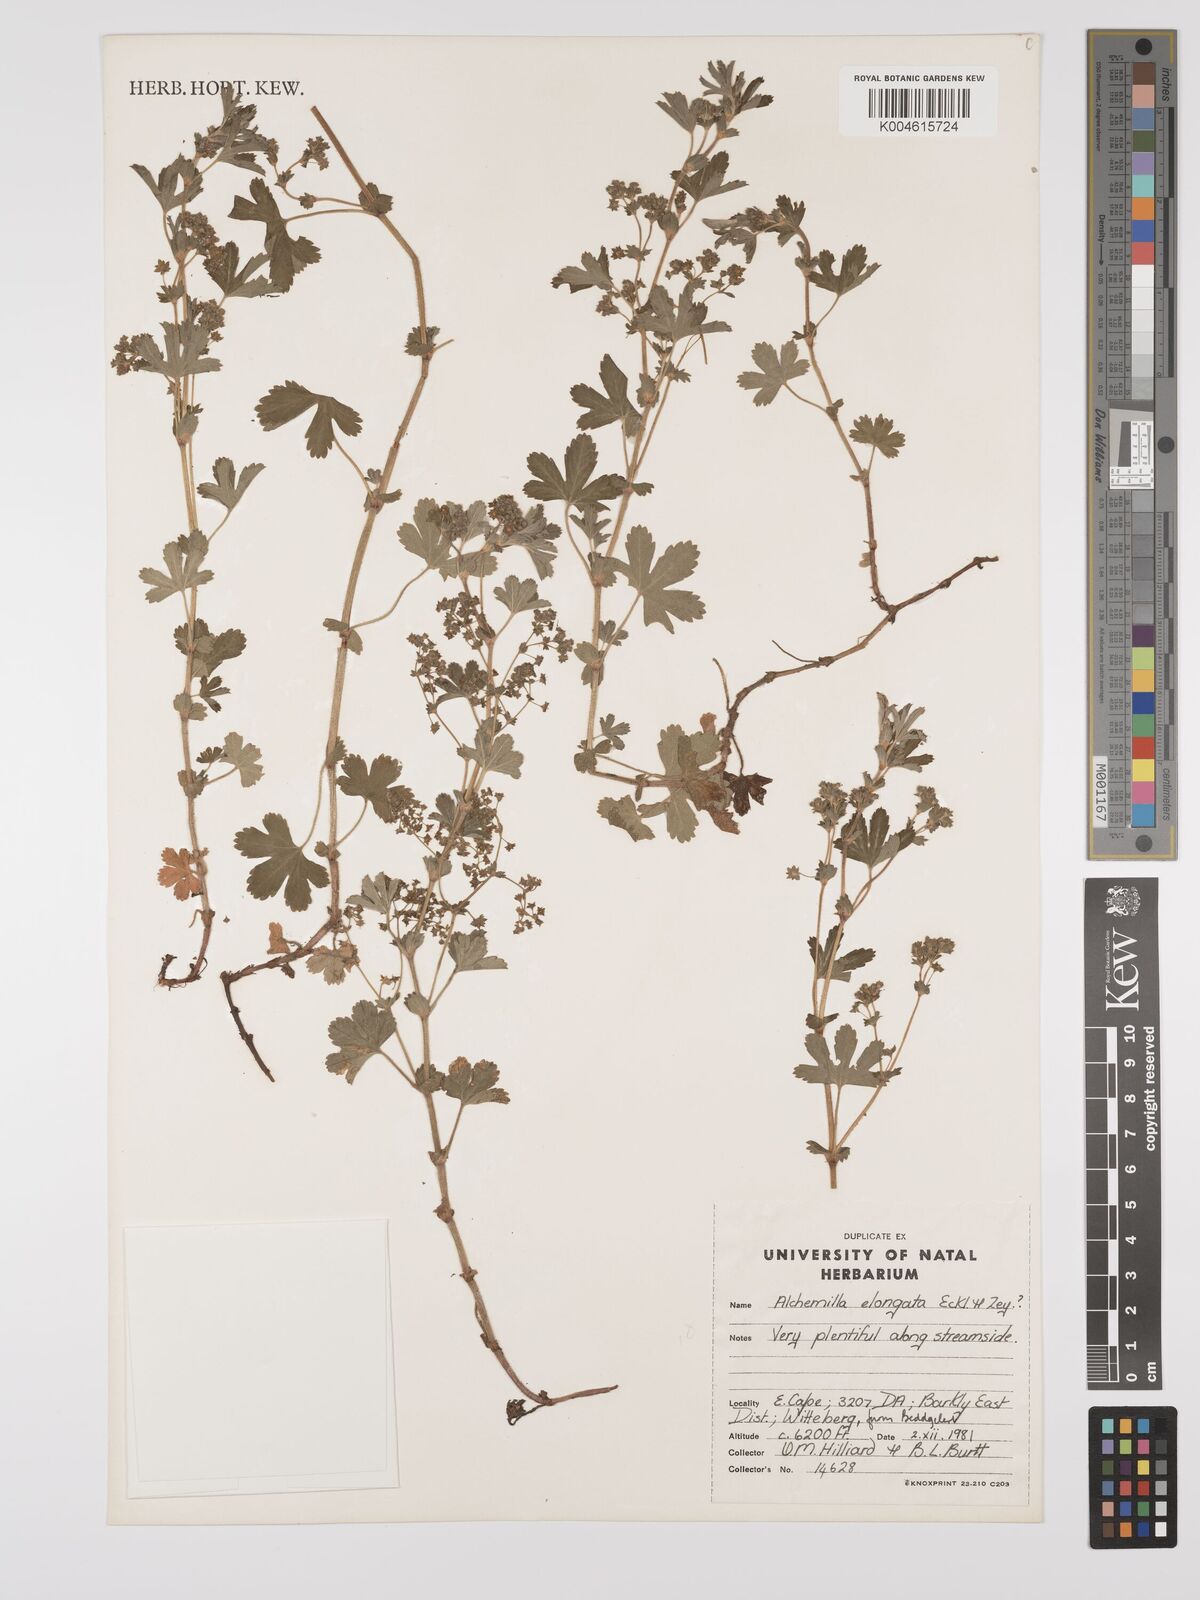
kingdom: Plantae
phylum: Tracheophyta
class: Magnoliopsida
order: Rosales
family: Rosaceae
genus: Alchemilla
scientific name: Alchemilla elongata
